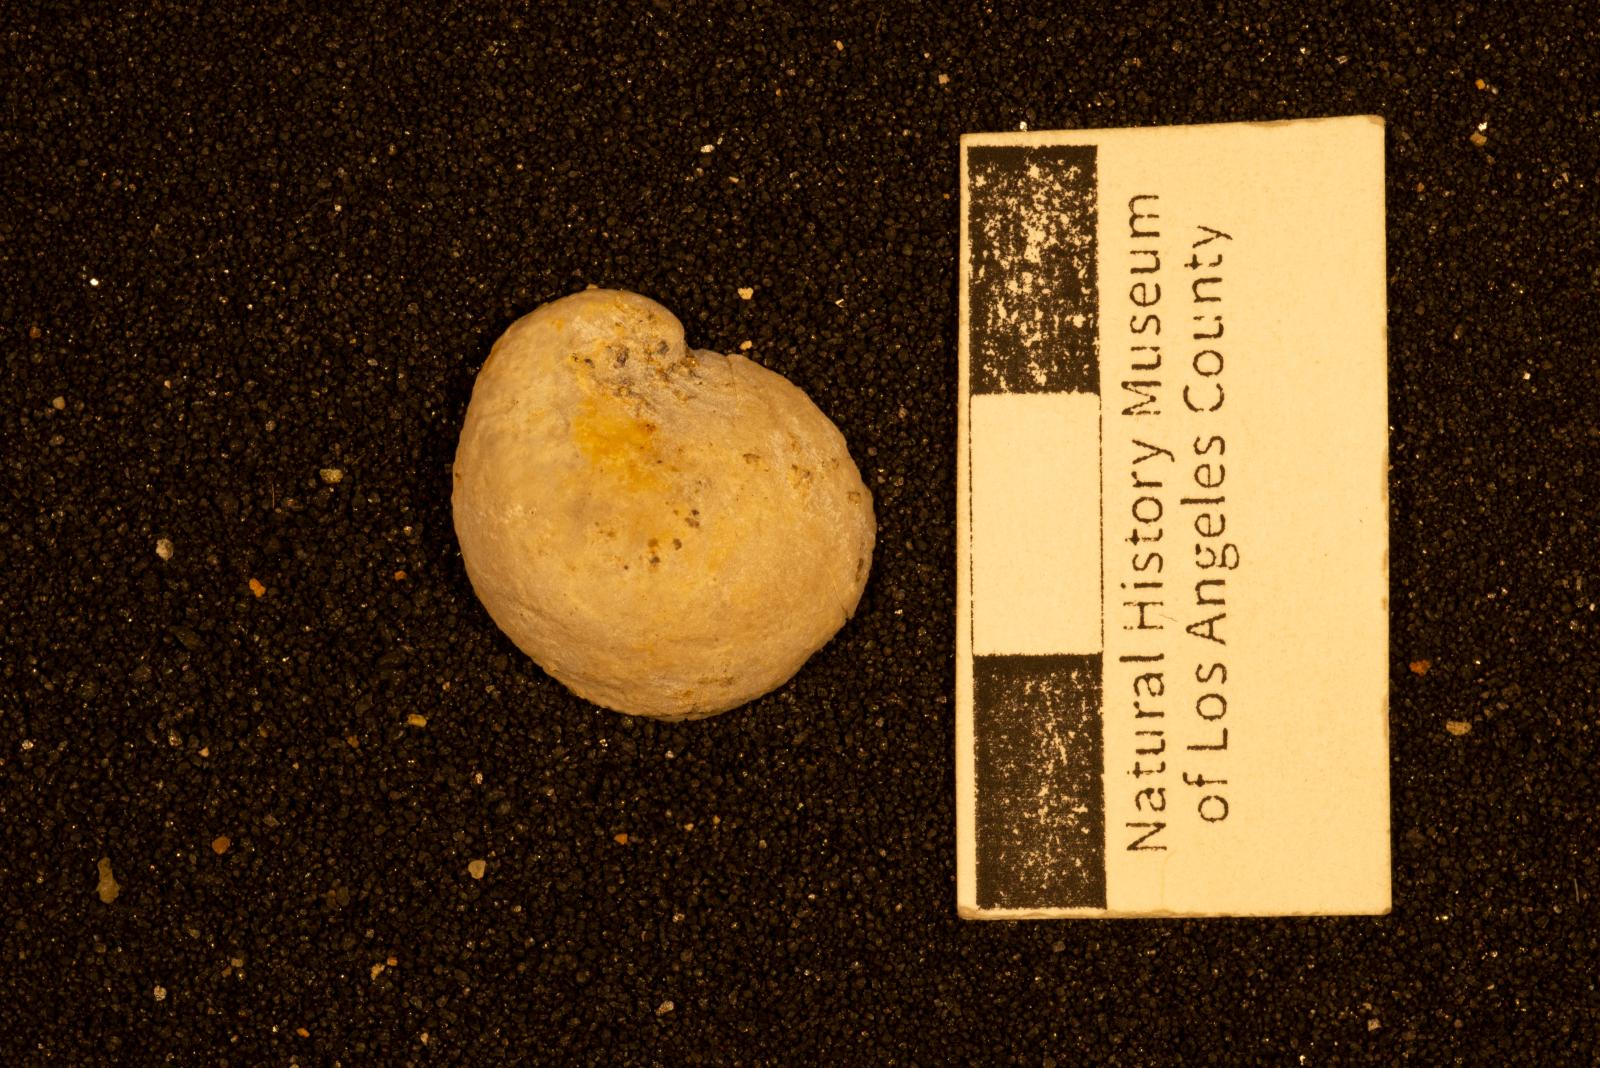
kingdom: Animalia
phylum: Mollusca
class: Bivalvia
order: Ostreida
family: Gryphaeidae
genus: Exogyra
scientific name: Exogyra
